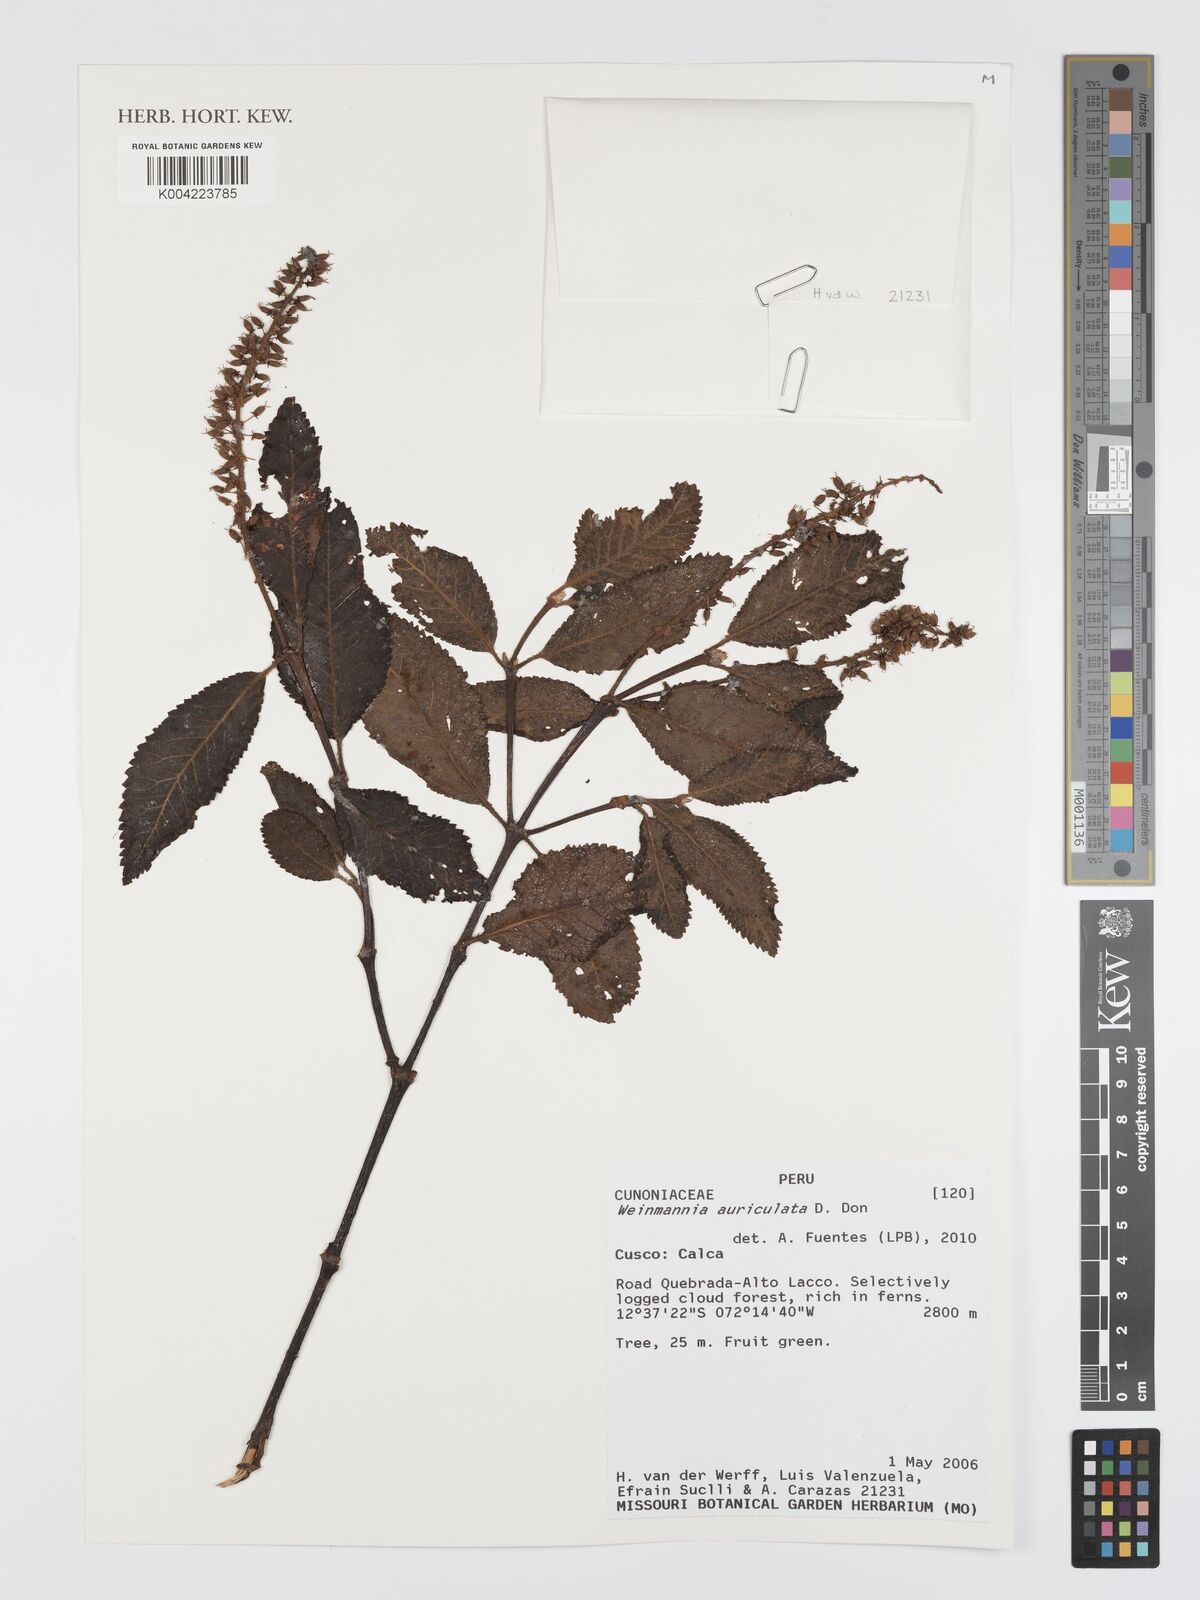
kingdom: Plantae
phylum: Tracheophyta
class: Magnoliopsida
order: Oxalidales
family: Cunoniaceae
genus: Weinmannia
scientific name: Weinmannia auriculata
